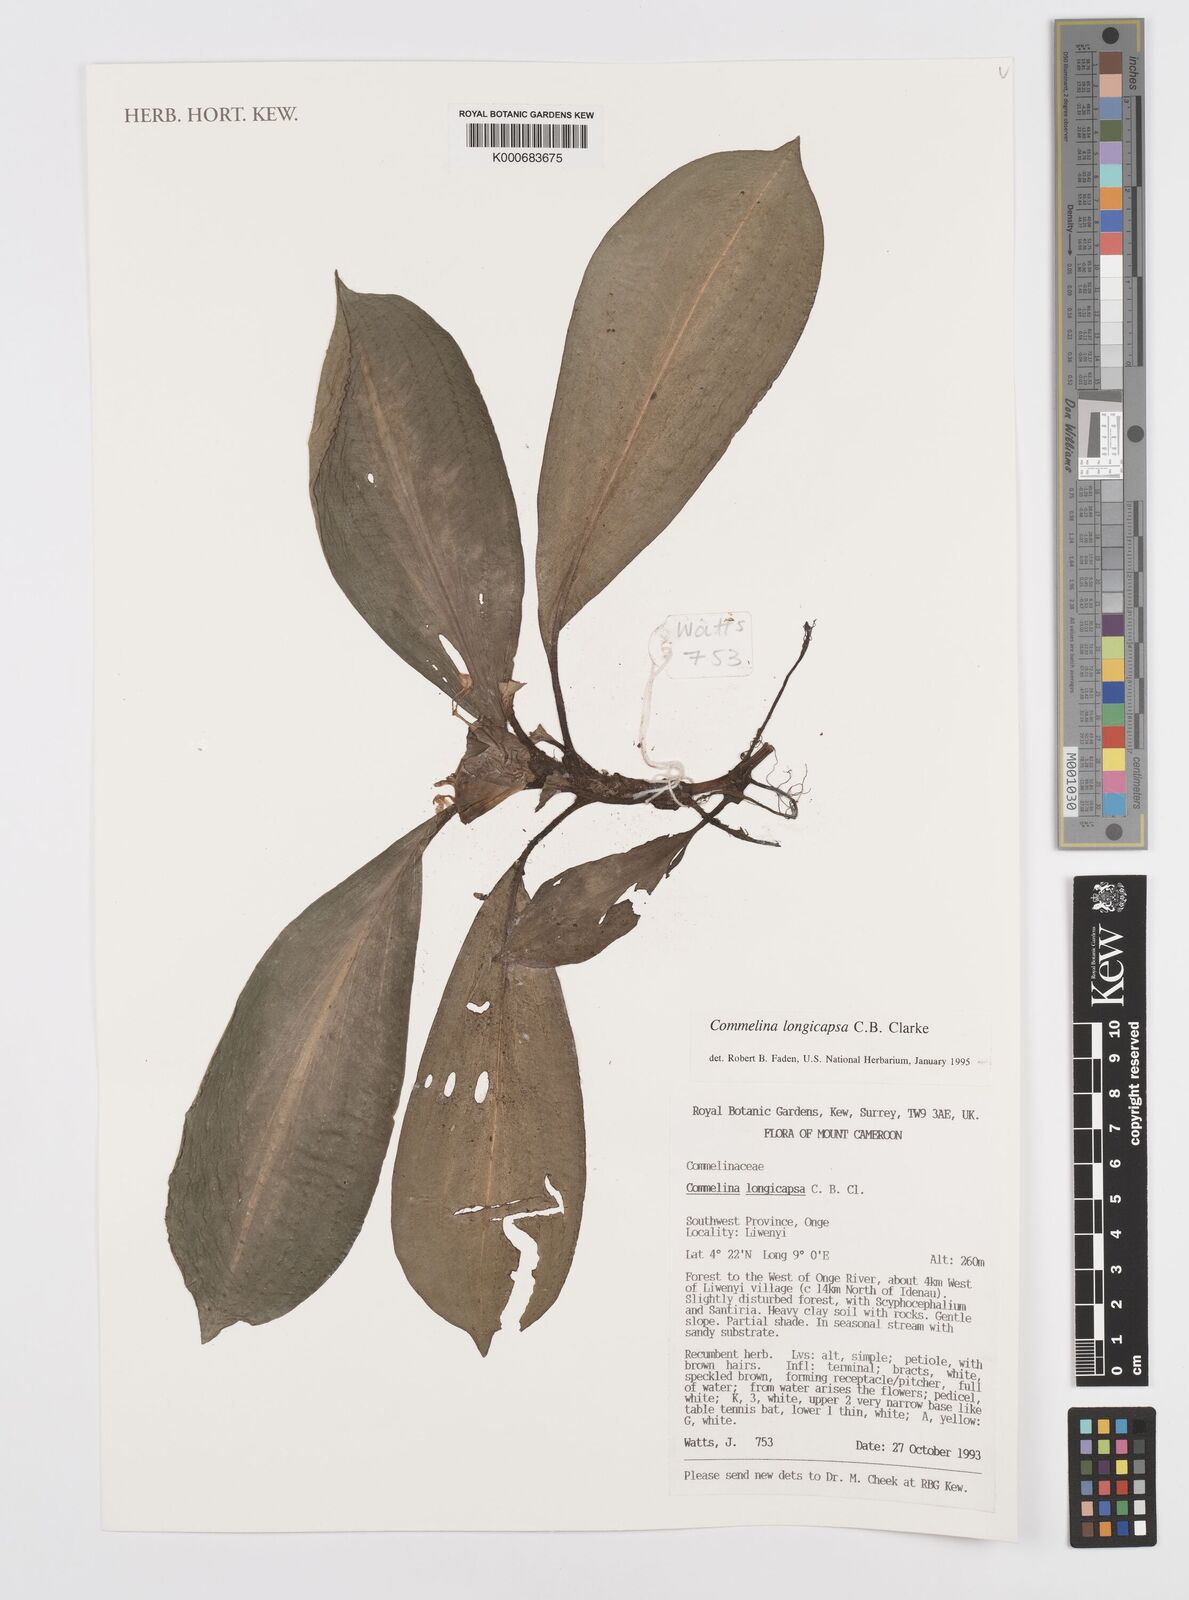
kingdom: Plantae
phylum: Tracheophyta
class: Liliopsida
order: Commelinales
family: Commelinaceae
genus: Commelina
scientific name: Commelina longicapsa
